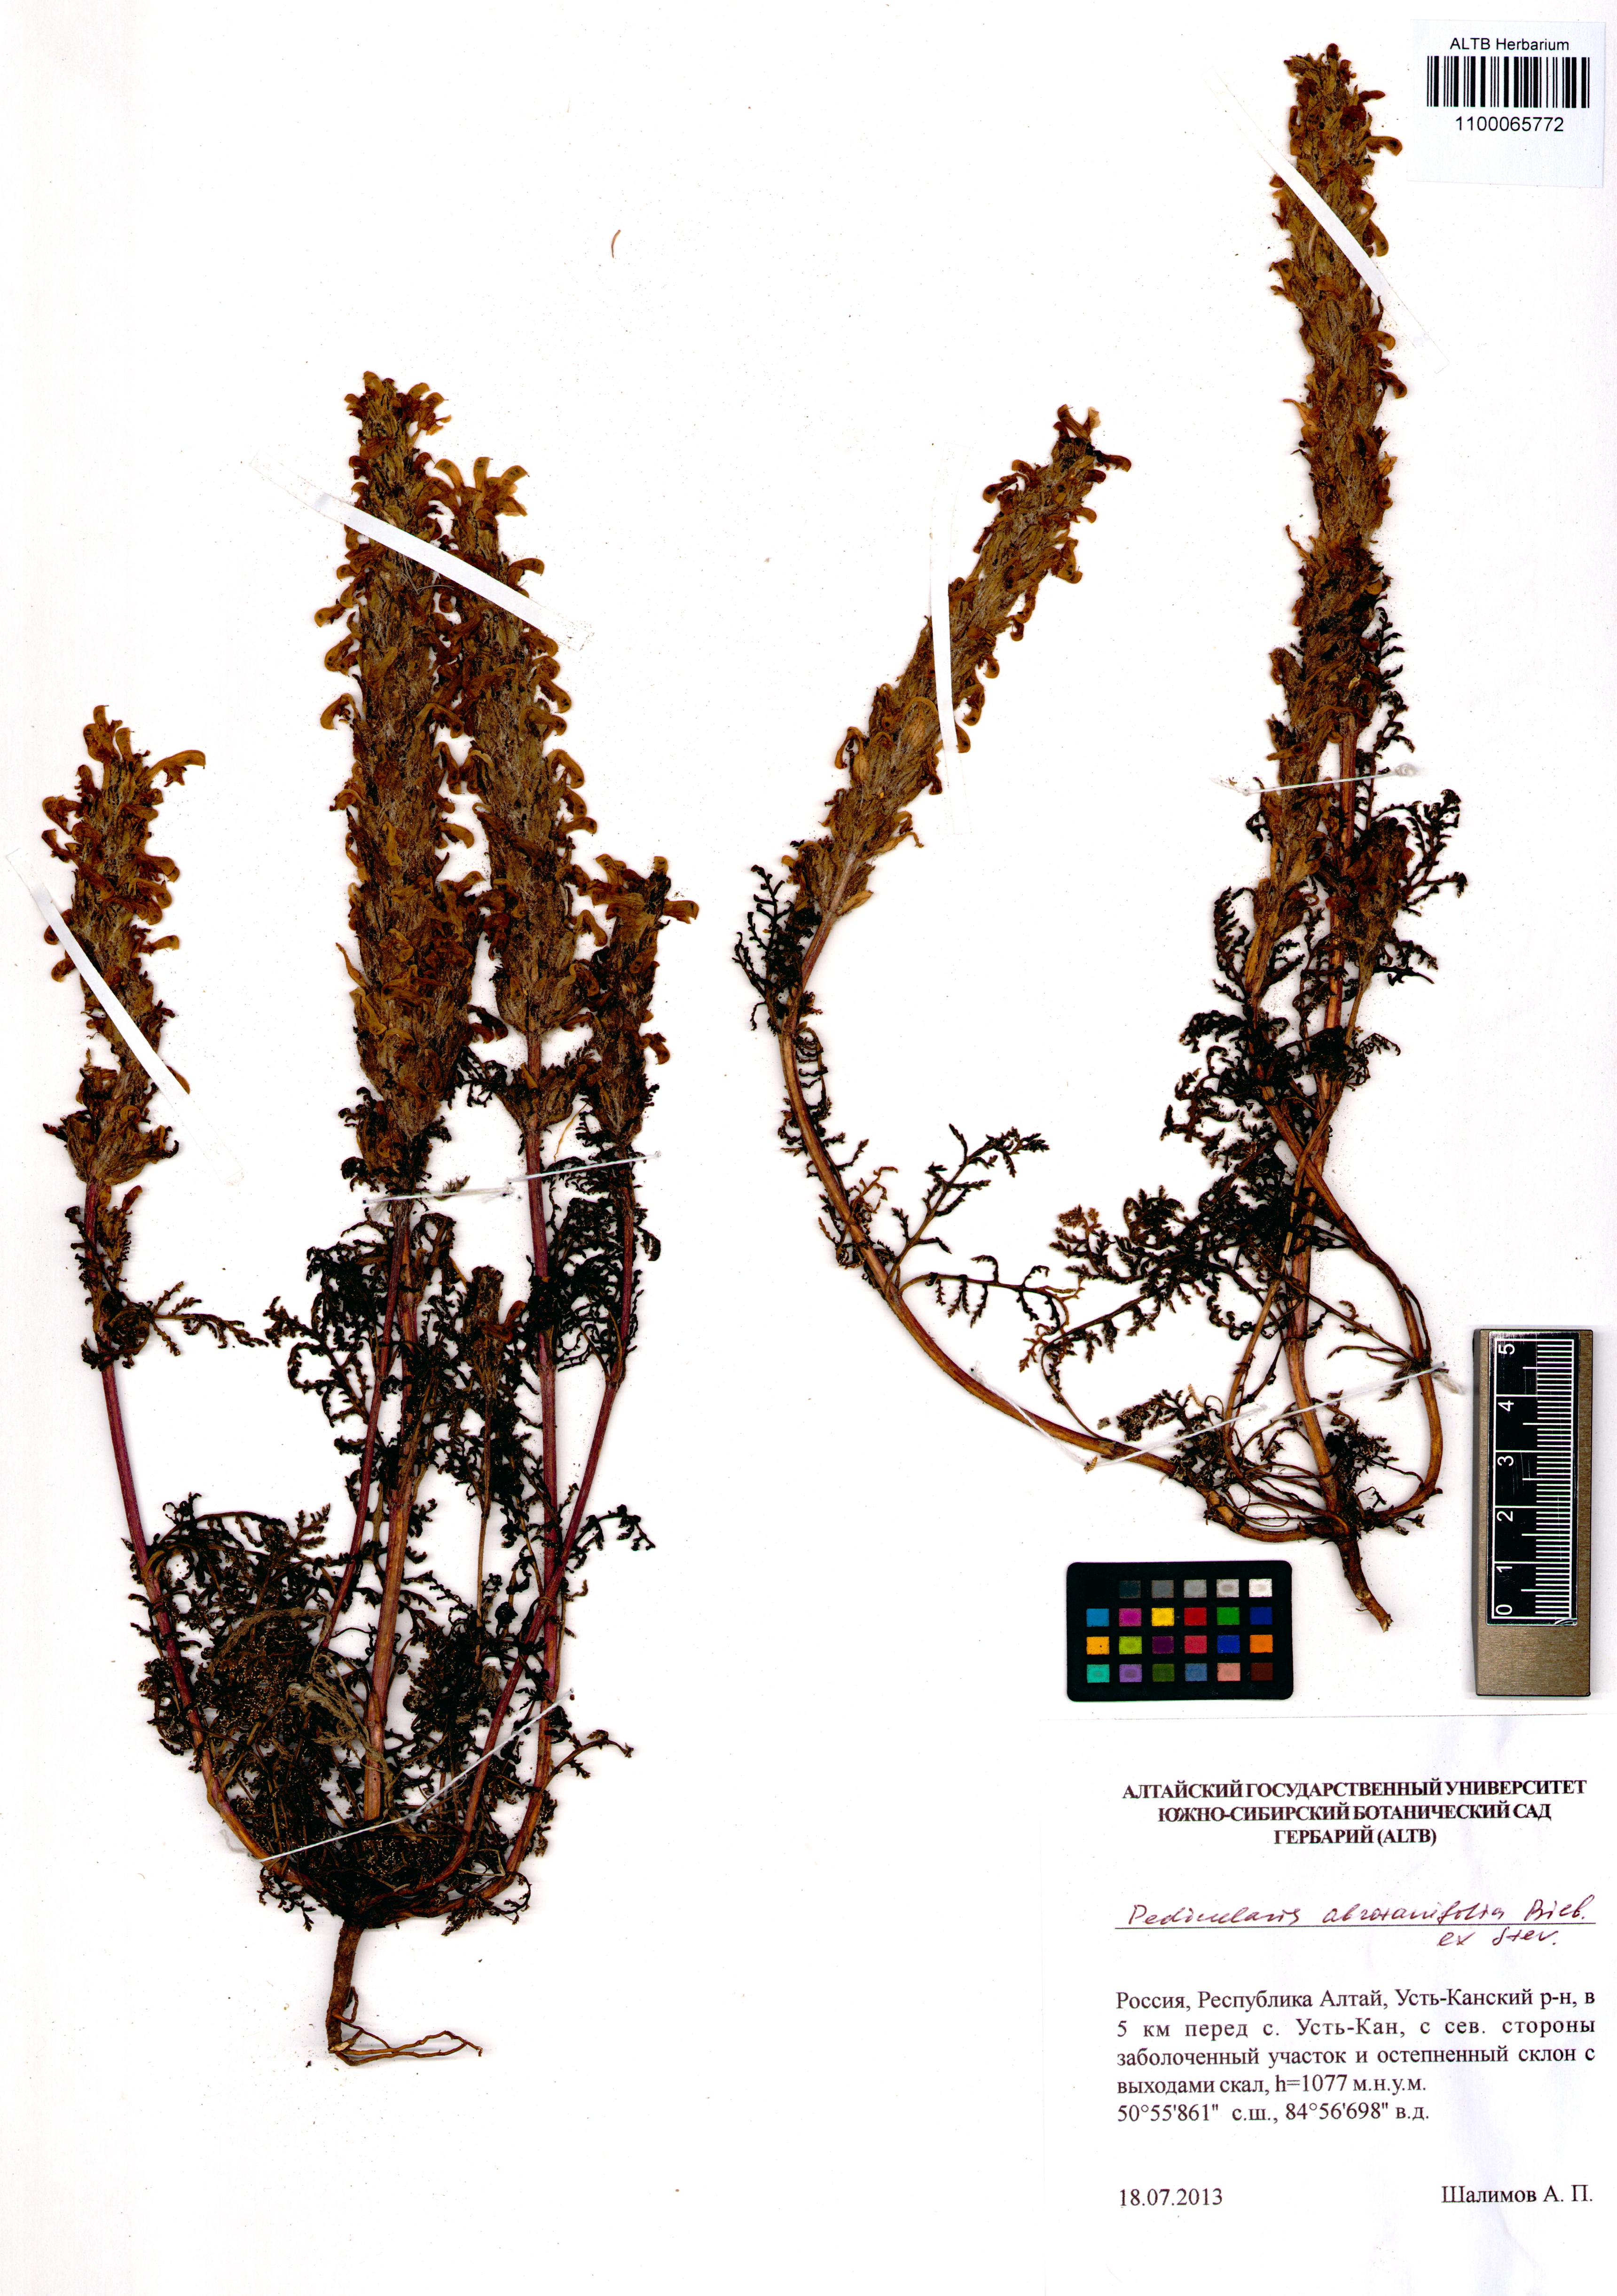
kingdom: Plantae
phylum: Tracheophyta
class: Magnoliopsida
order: Lamiales
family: Orobanchaceae
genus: Pedicularis
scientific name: Pedicularis abrotanifolia
